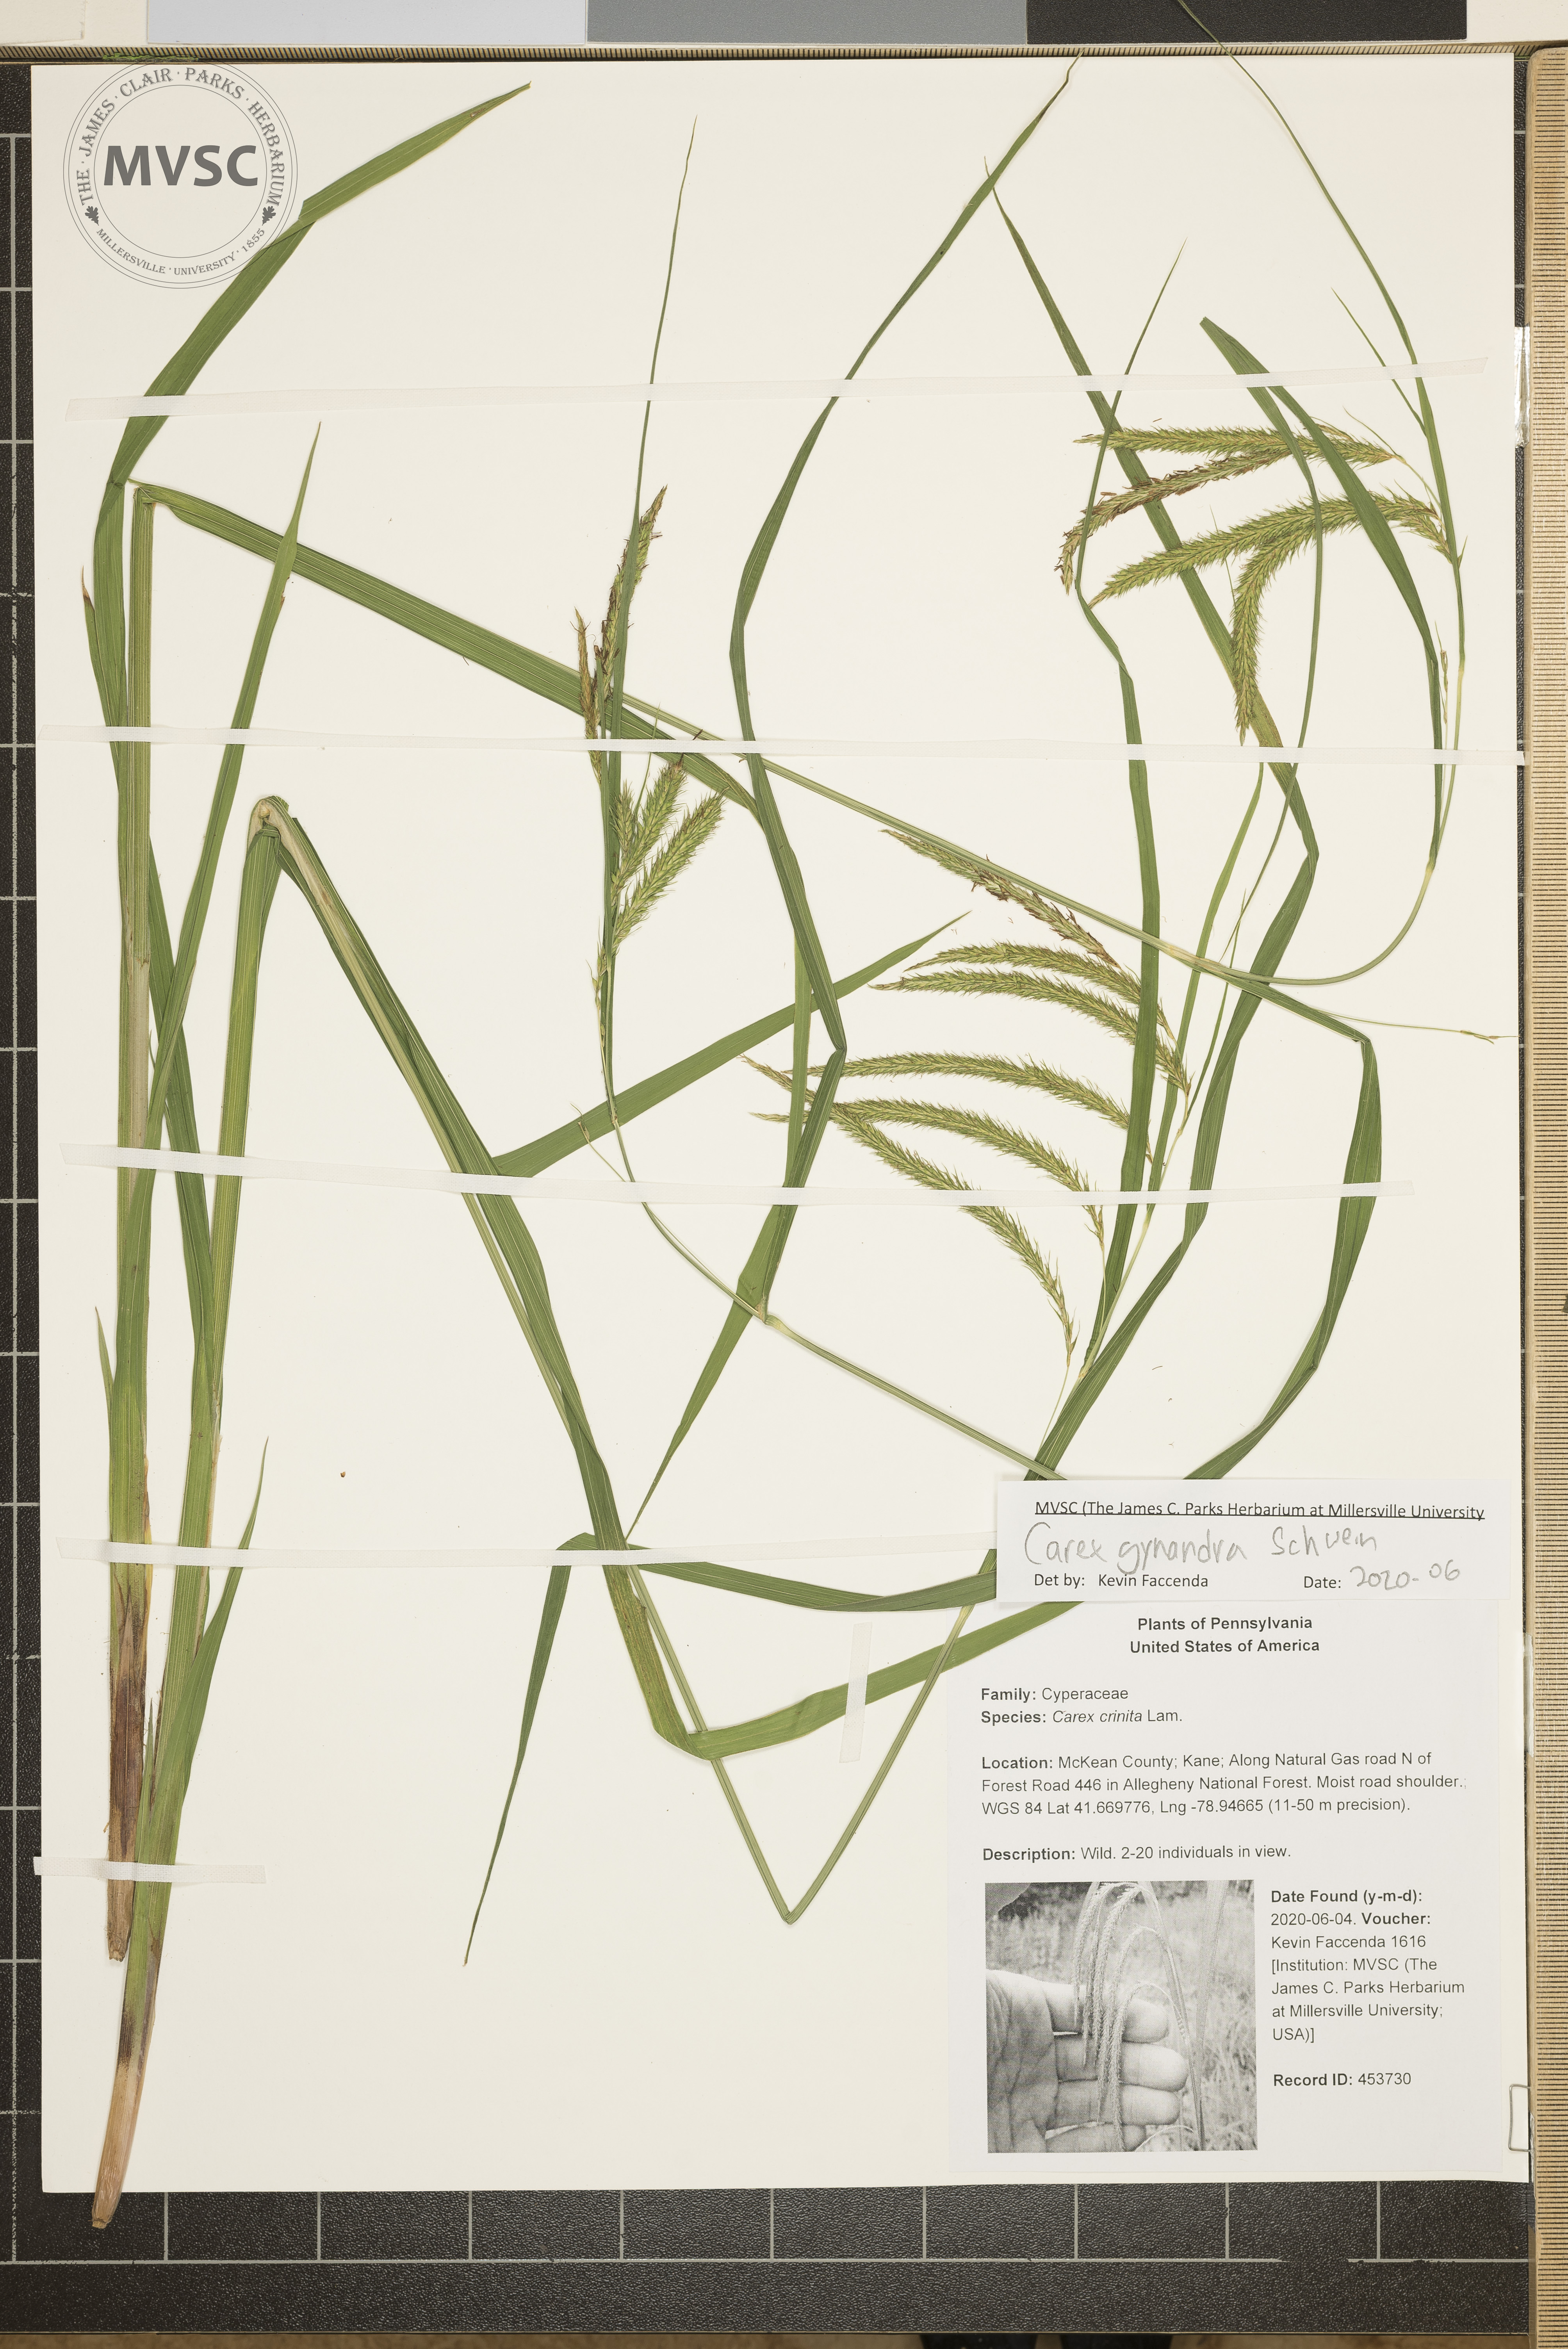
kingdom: Plantae
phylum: Tracheophyta
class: Liliopsida
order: Poales
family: Cyperaceae
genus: Carex
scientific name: Carex gynandra
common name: Nodding sedge
